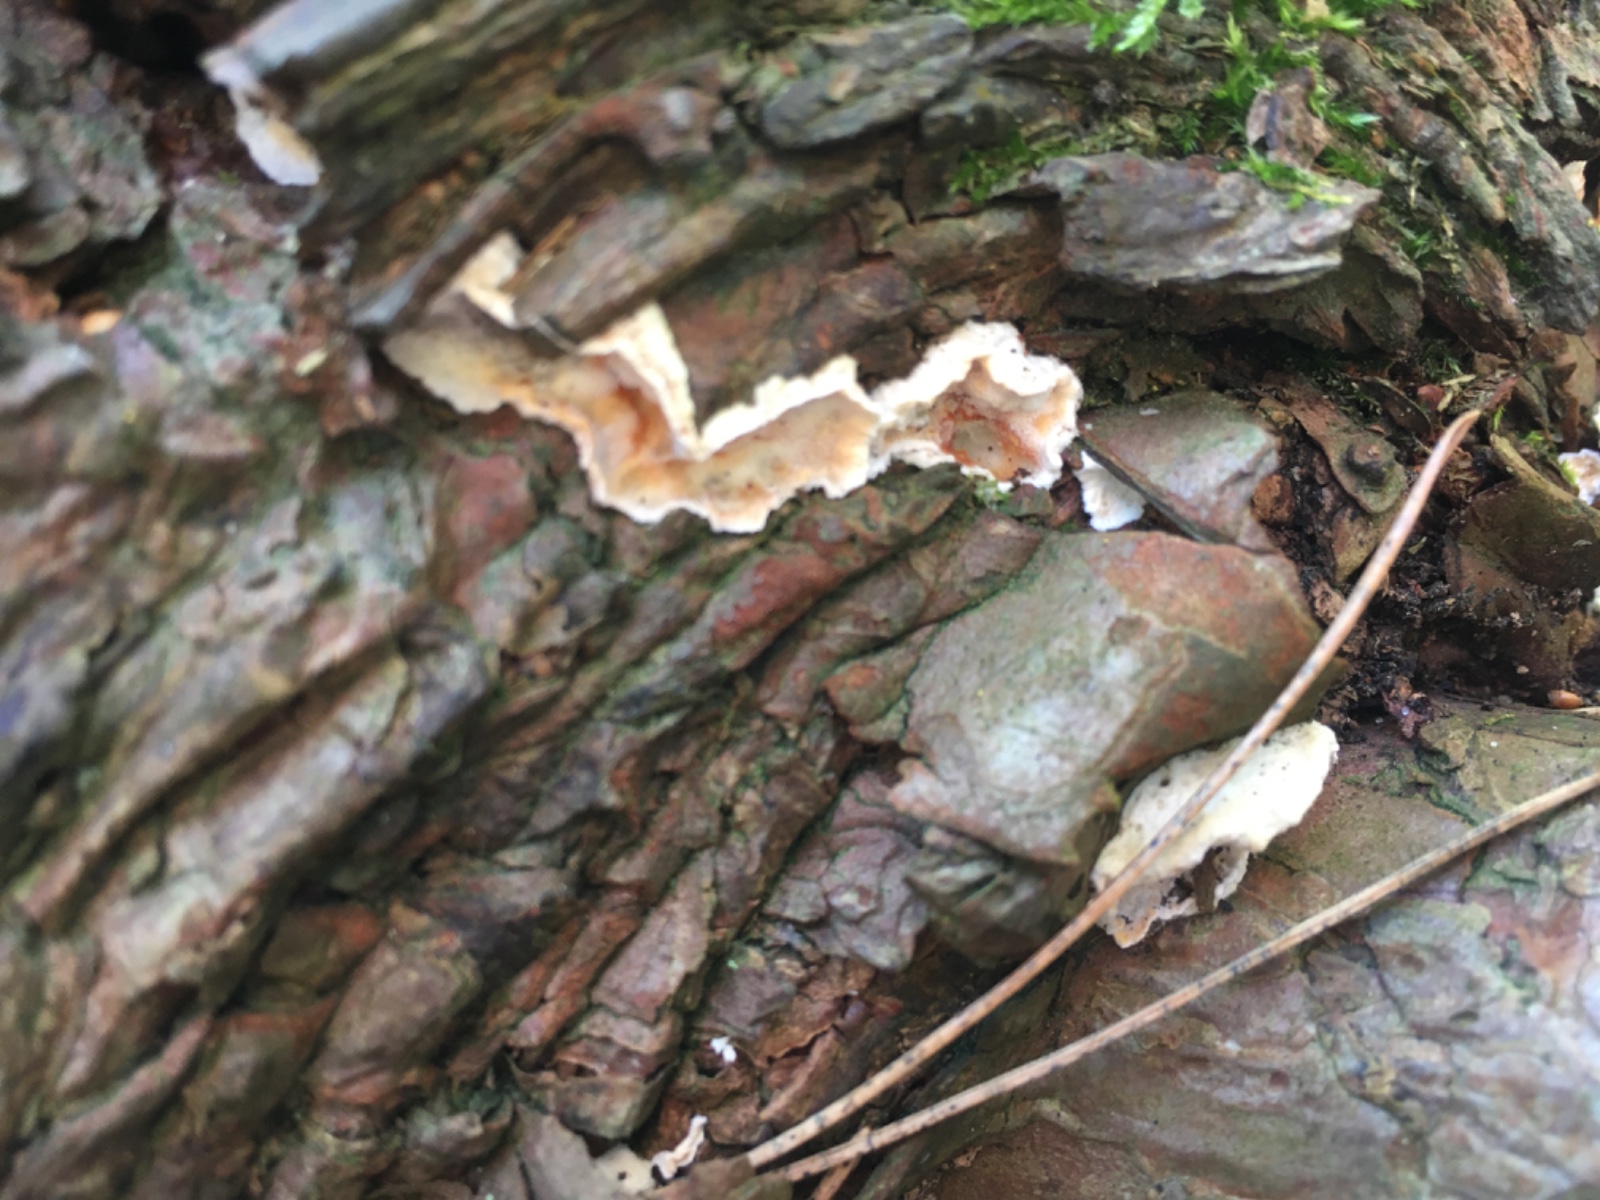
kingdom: Fungi
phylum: Basidiomycota
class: Agaricomycetes
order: Polyporales
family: Incrustoporiaceae
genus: Skeletocutis
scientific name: Skeletocutis amorpha
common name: orange krystalporesvamp
